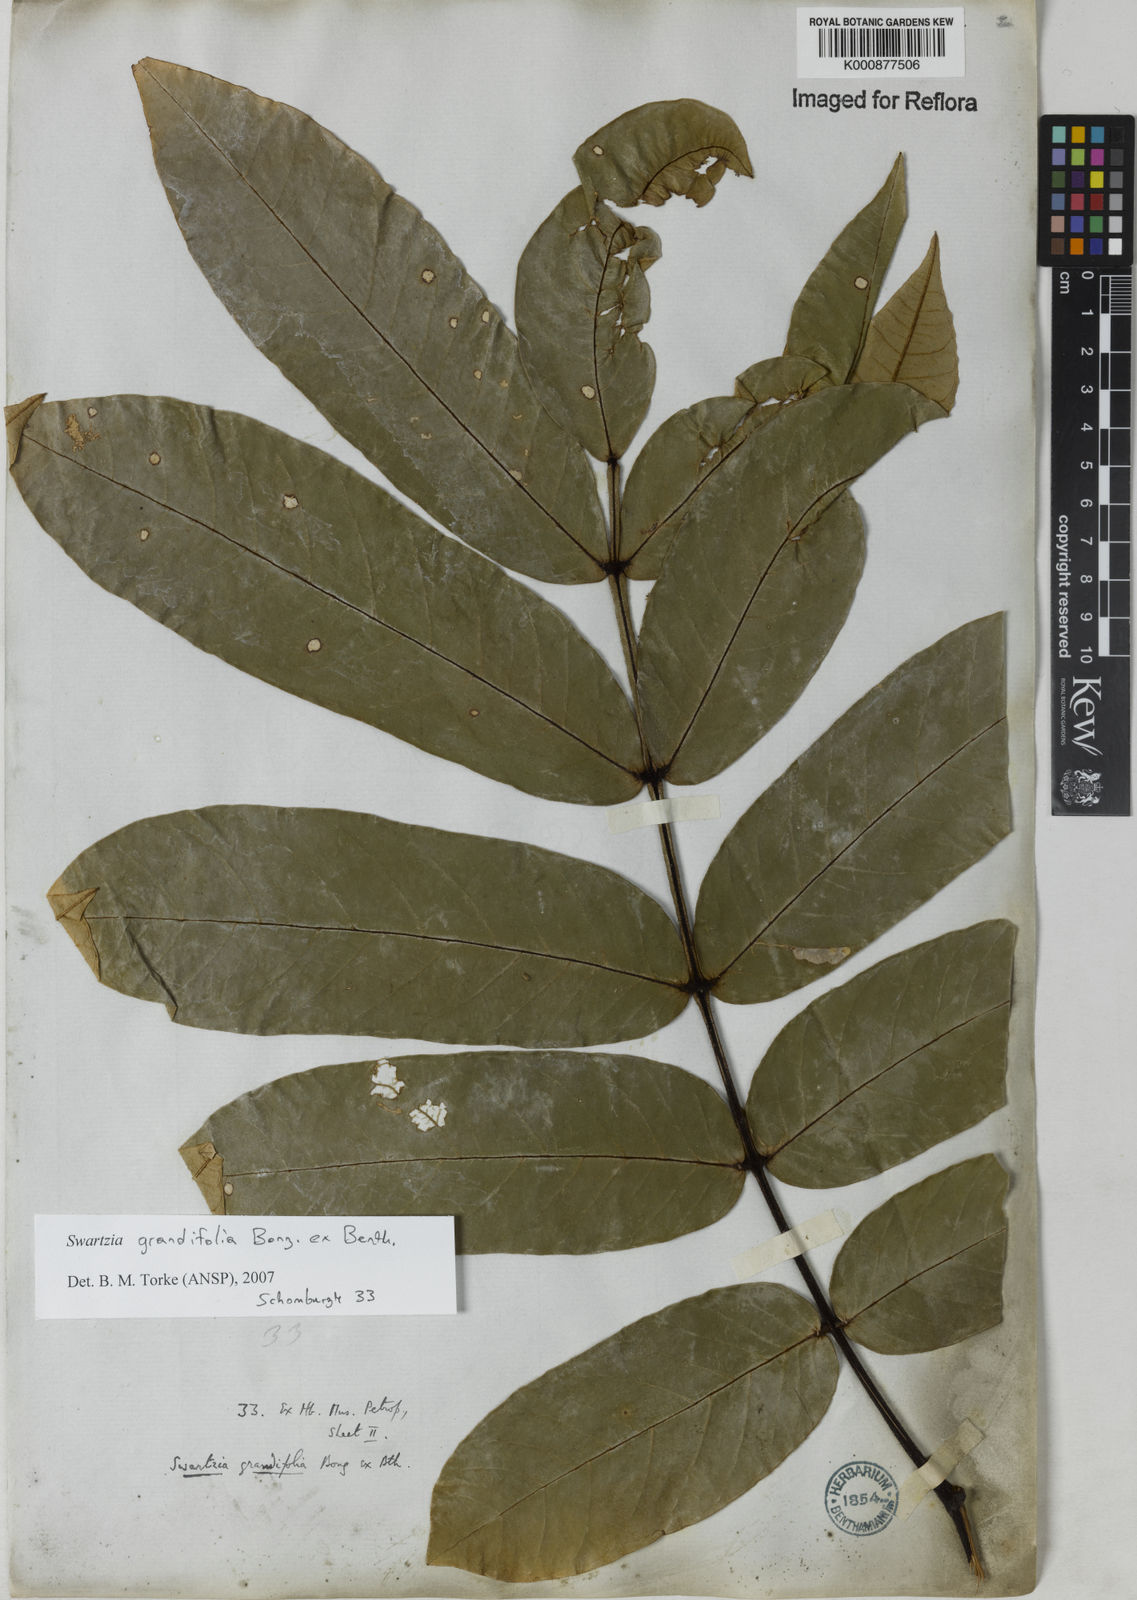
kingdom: Plantae
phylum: Tracheophyta
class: Magnoliopsida
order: Fabales
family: Fabaceae
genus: Swartzia
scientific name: Swartzia grandifolia
